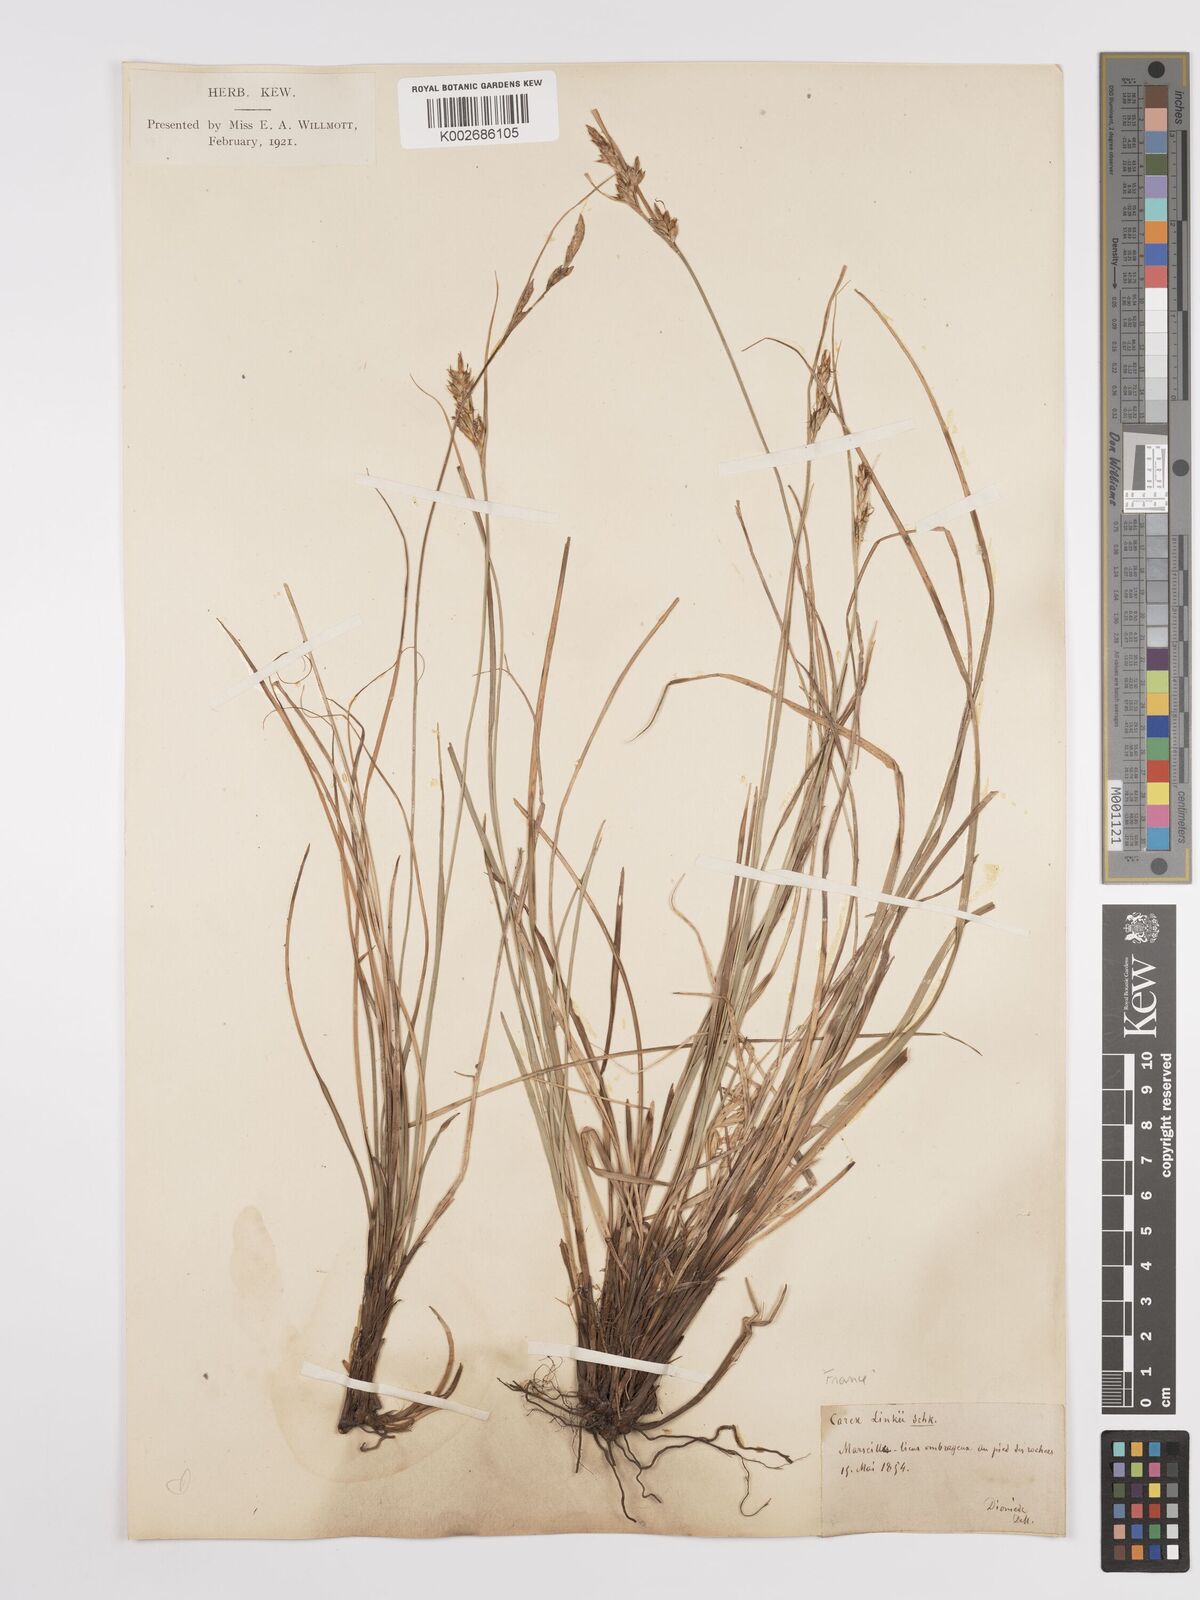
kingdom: Plantae
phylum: Tracheophyta
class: Liliopsida
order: Poales
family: Cyperaceae
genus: Carex
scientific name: Carex distachya
